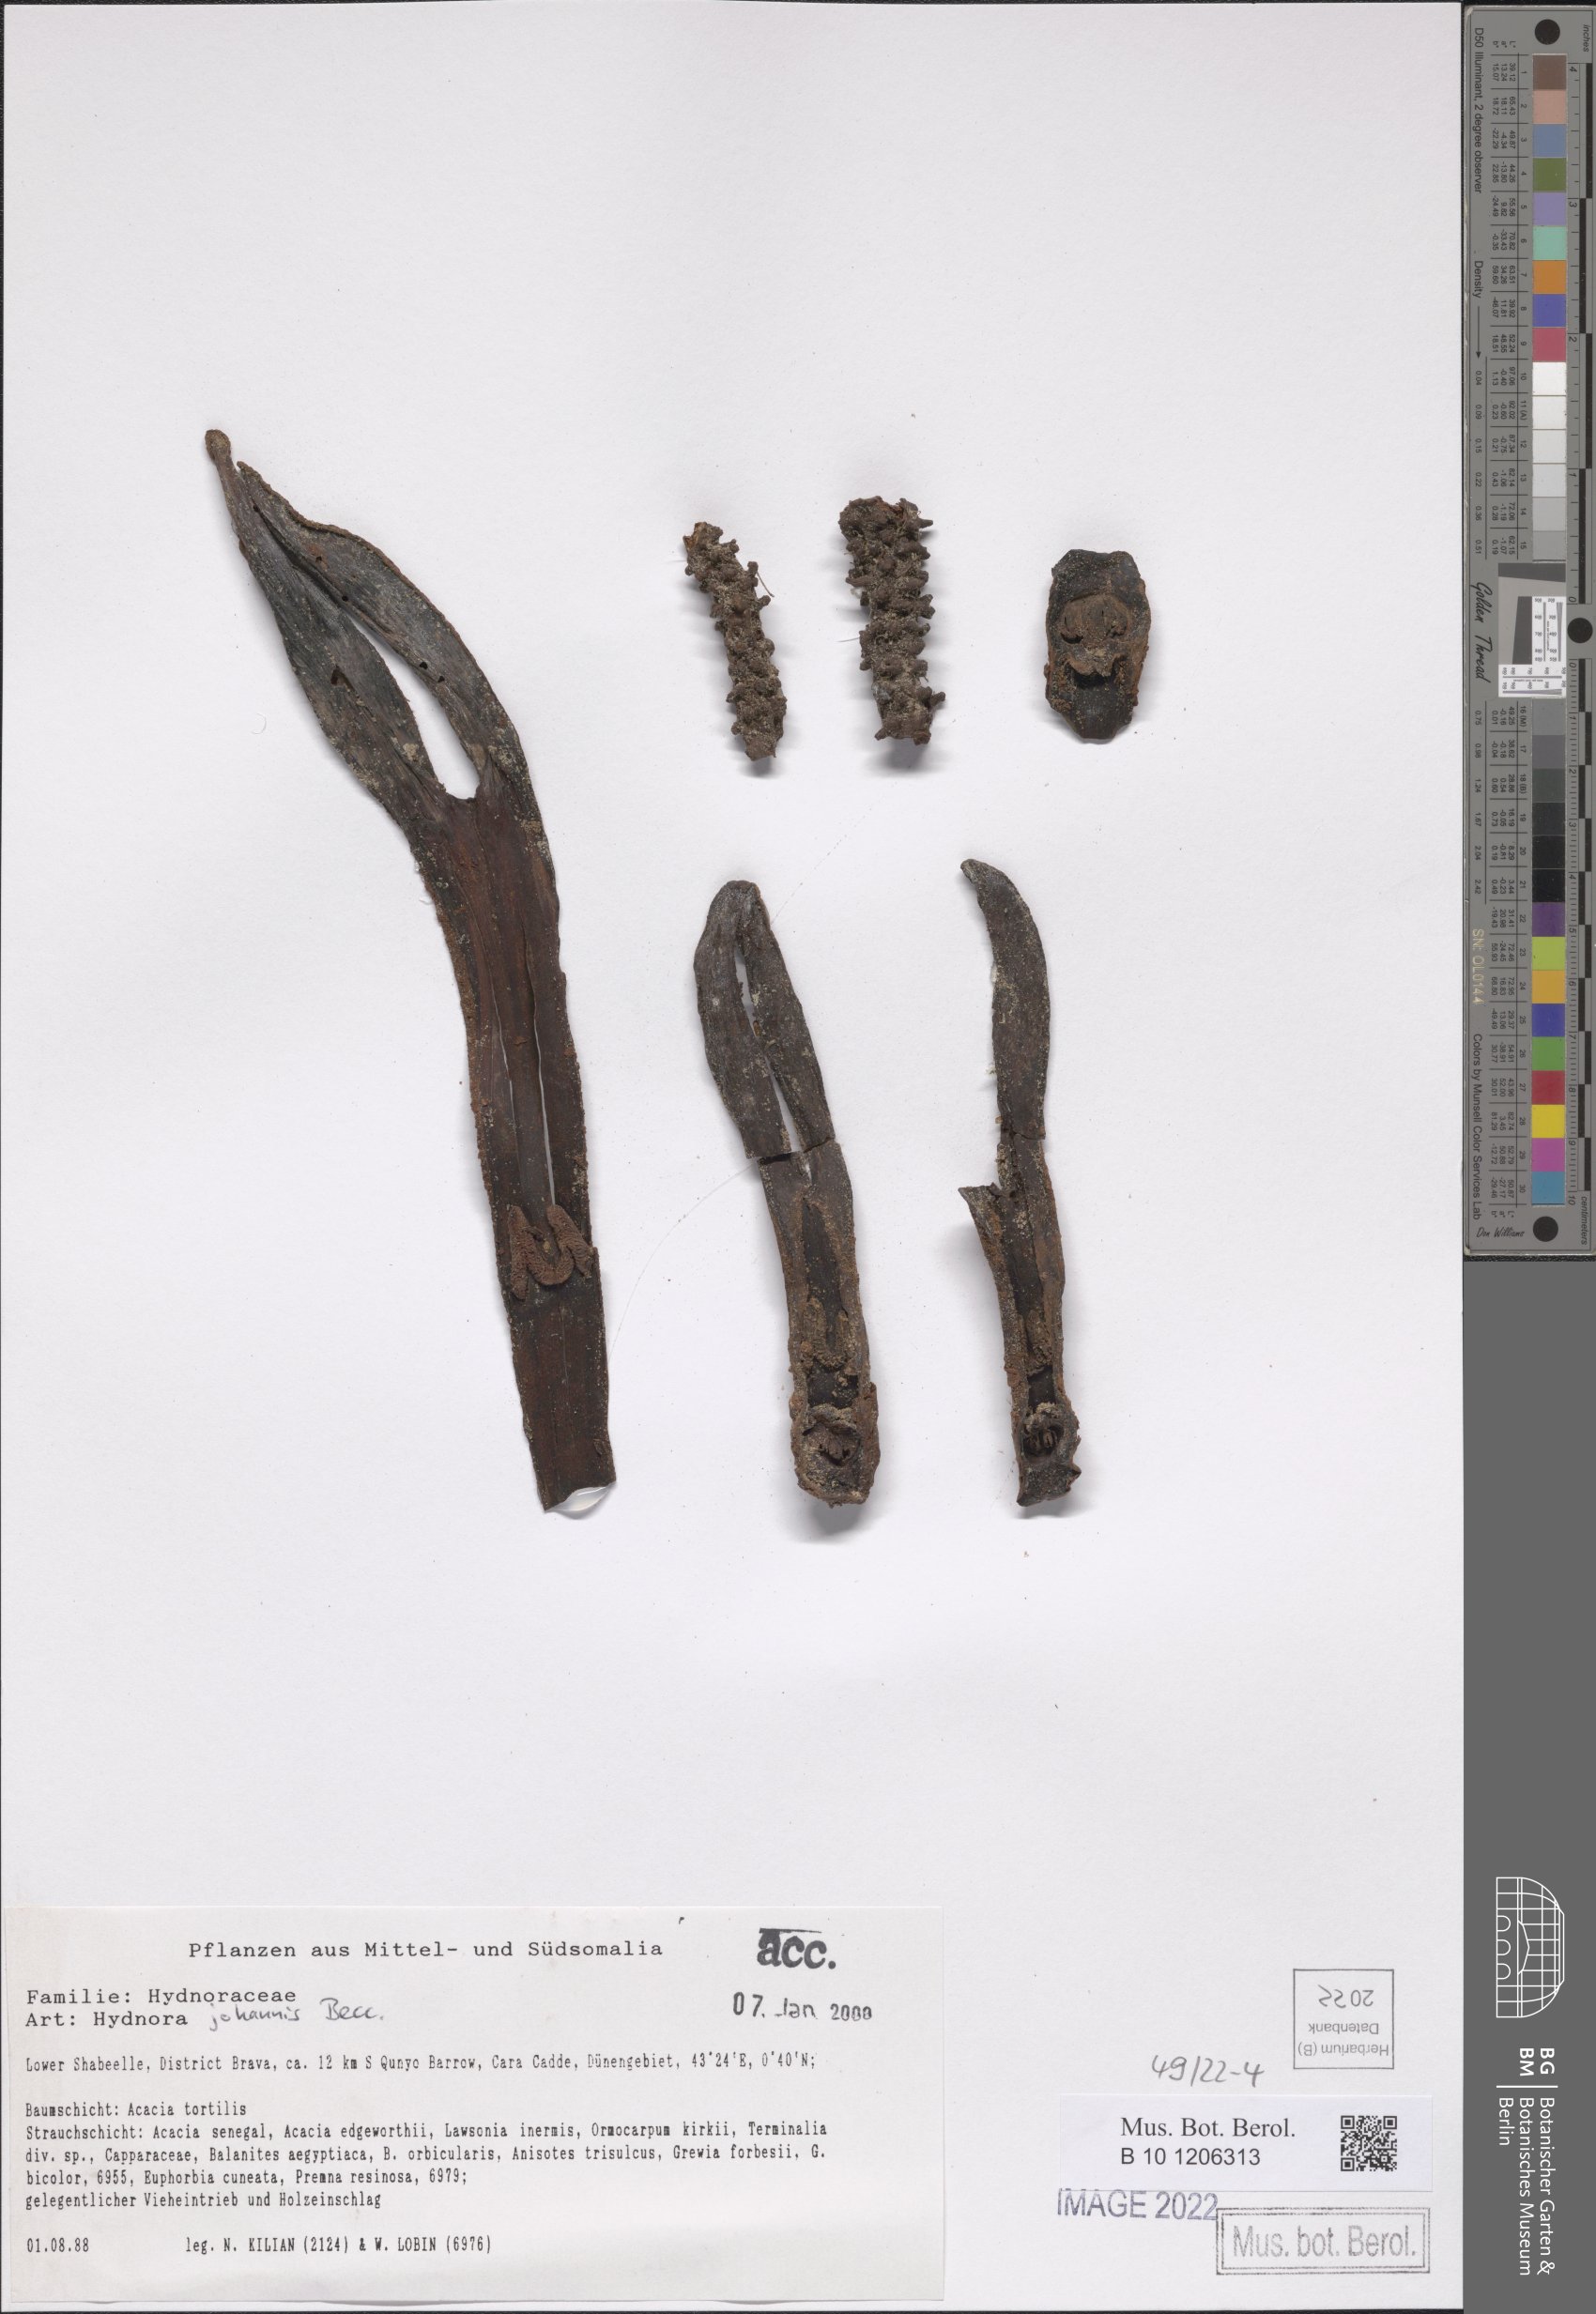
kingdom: Plantae
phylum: Tracheophyta
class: Magnoliopsida
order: Piperales
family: Hydnoraceae
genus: Hydnora
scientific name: Hydnora abyssinica
